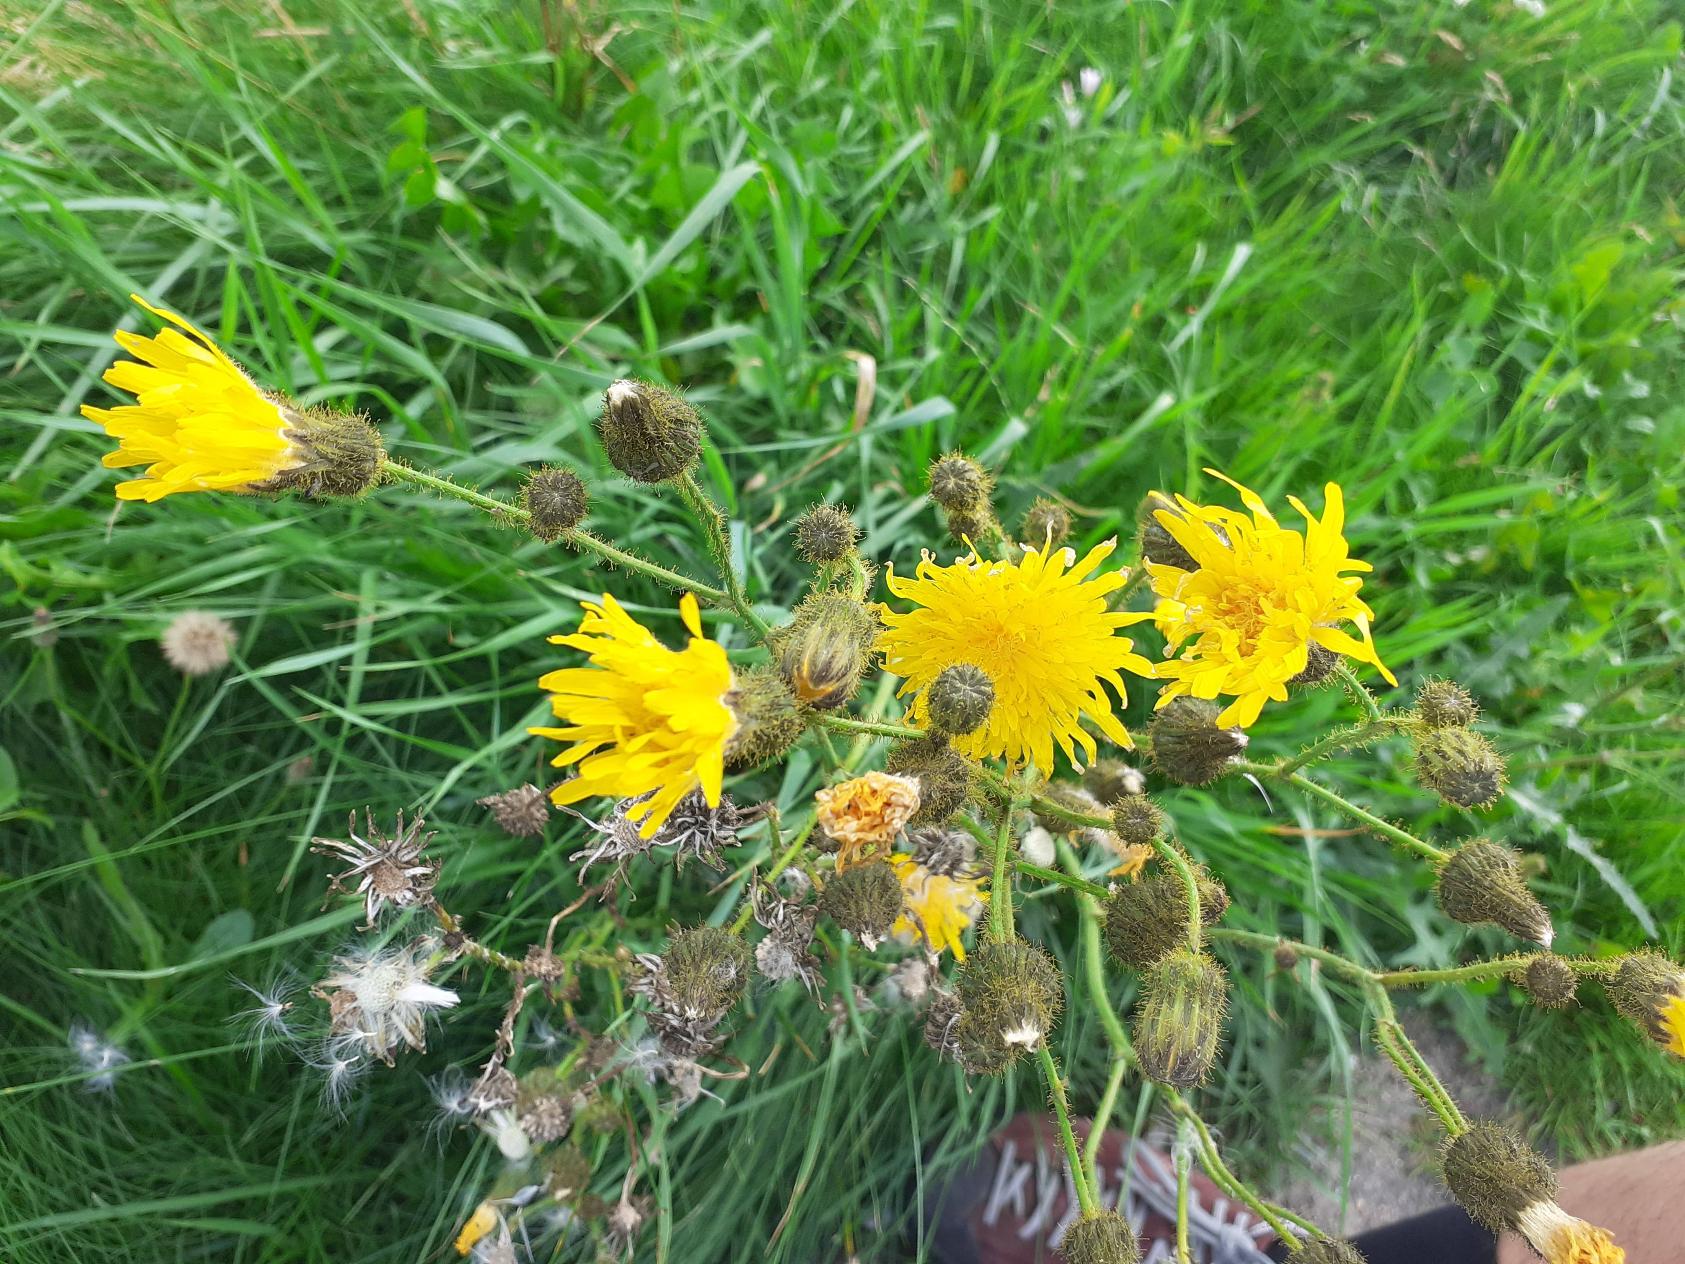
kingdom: Plantae
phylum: Tracheophyta
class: Magnoliopsida
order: Asterales
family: Asteraceae
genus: Sonchus
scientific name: Sonchus arvensis
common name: Ager-svinemælk
